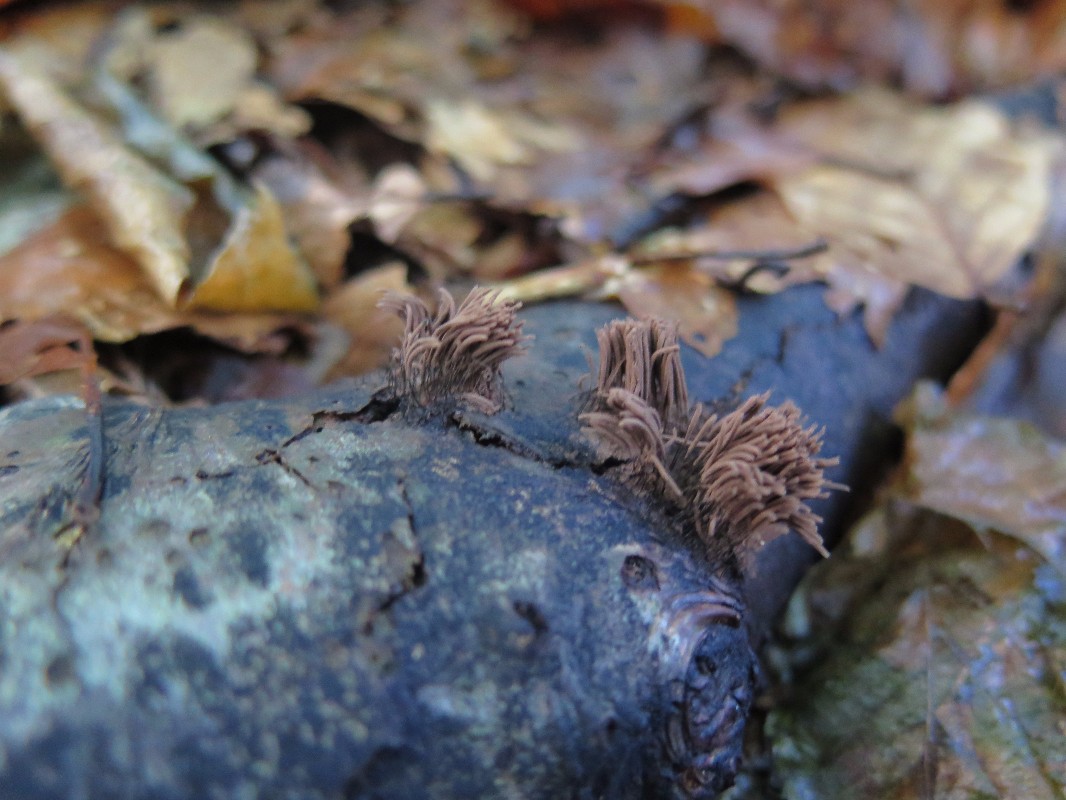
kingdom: Protozoa
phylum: Mycetozoa
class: Myxomycetes
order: Stemonitidales
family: Stemonitidaceae
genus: Stemonitis
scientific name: Stemonitis axifera
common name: rødbrun støvkølle
